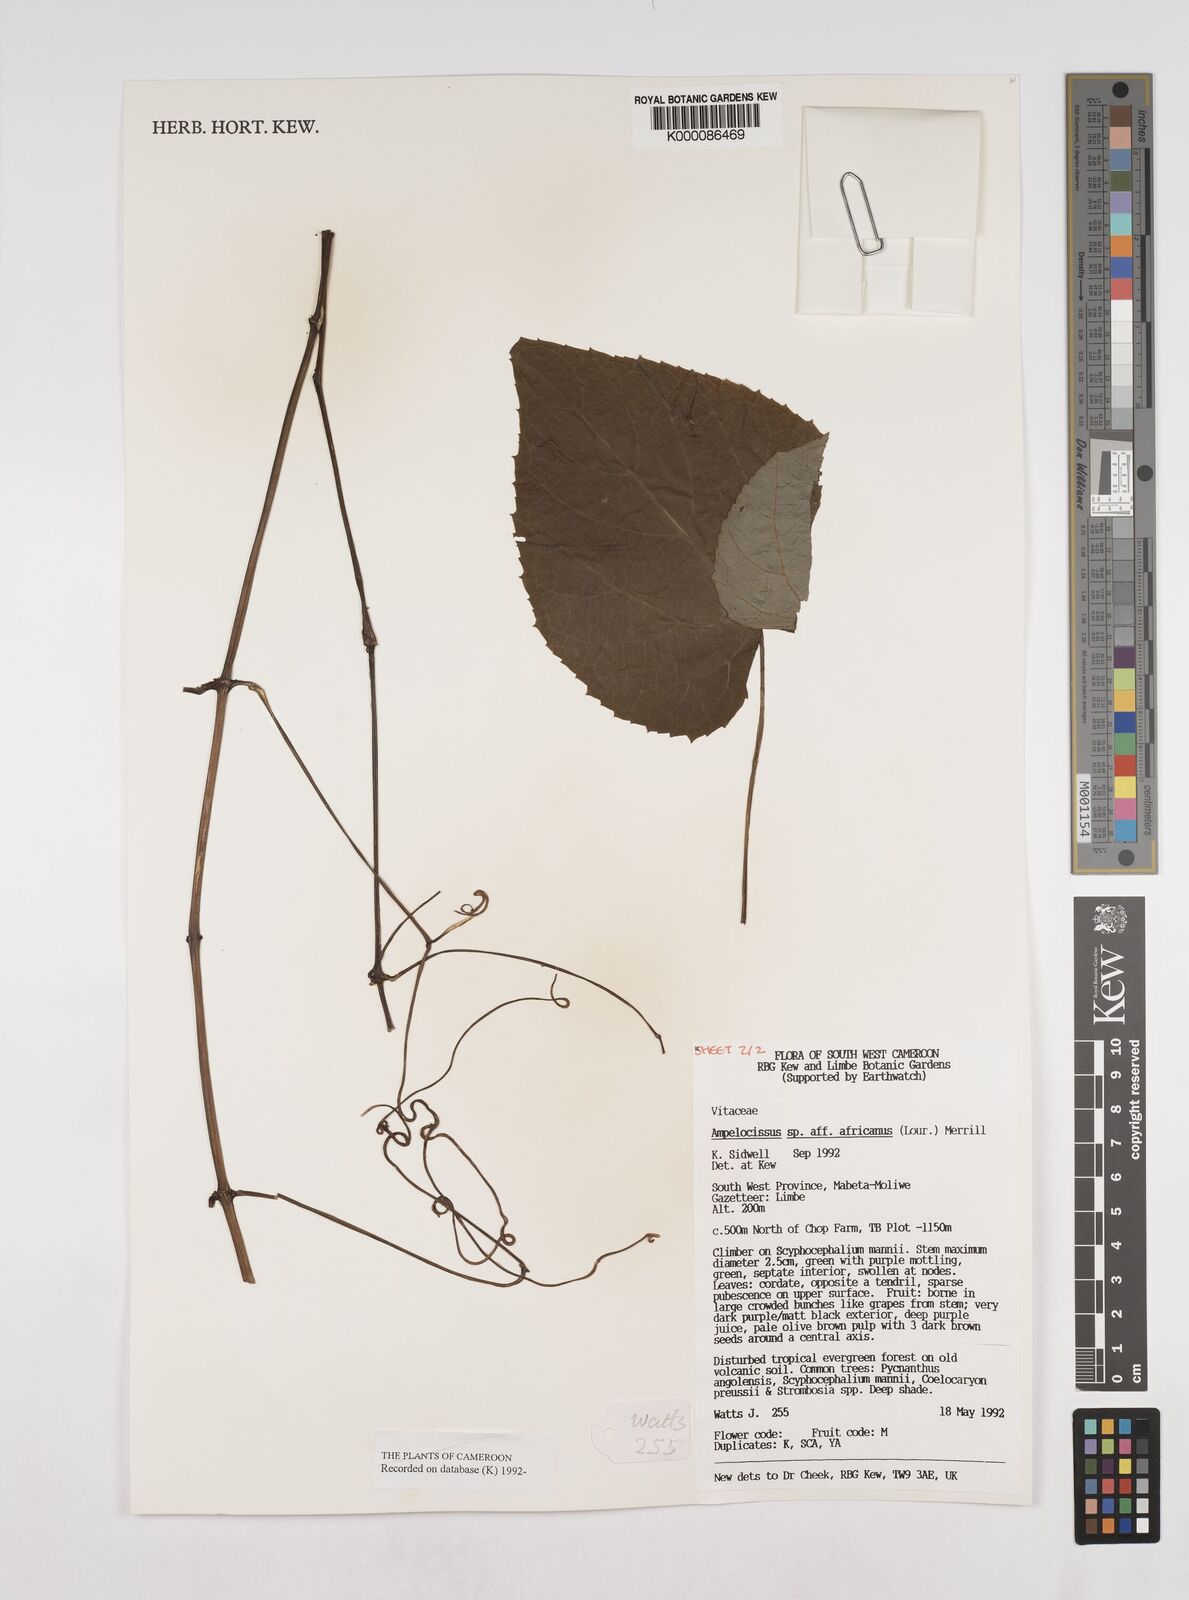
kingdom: Plantae
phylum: Tracheophyta
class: Magnoliopsida
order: Vitales
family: Vitaceae
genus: Ampelocissus
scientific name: Ampelocissus africana
